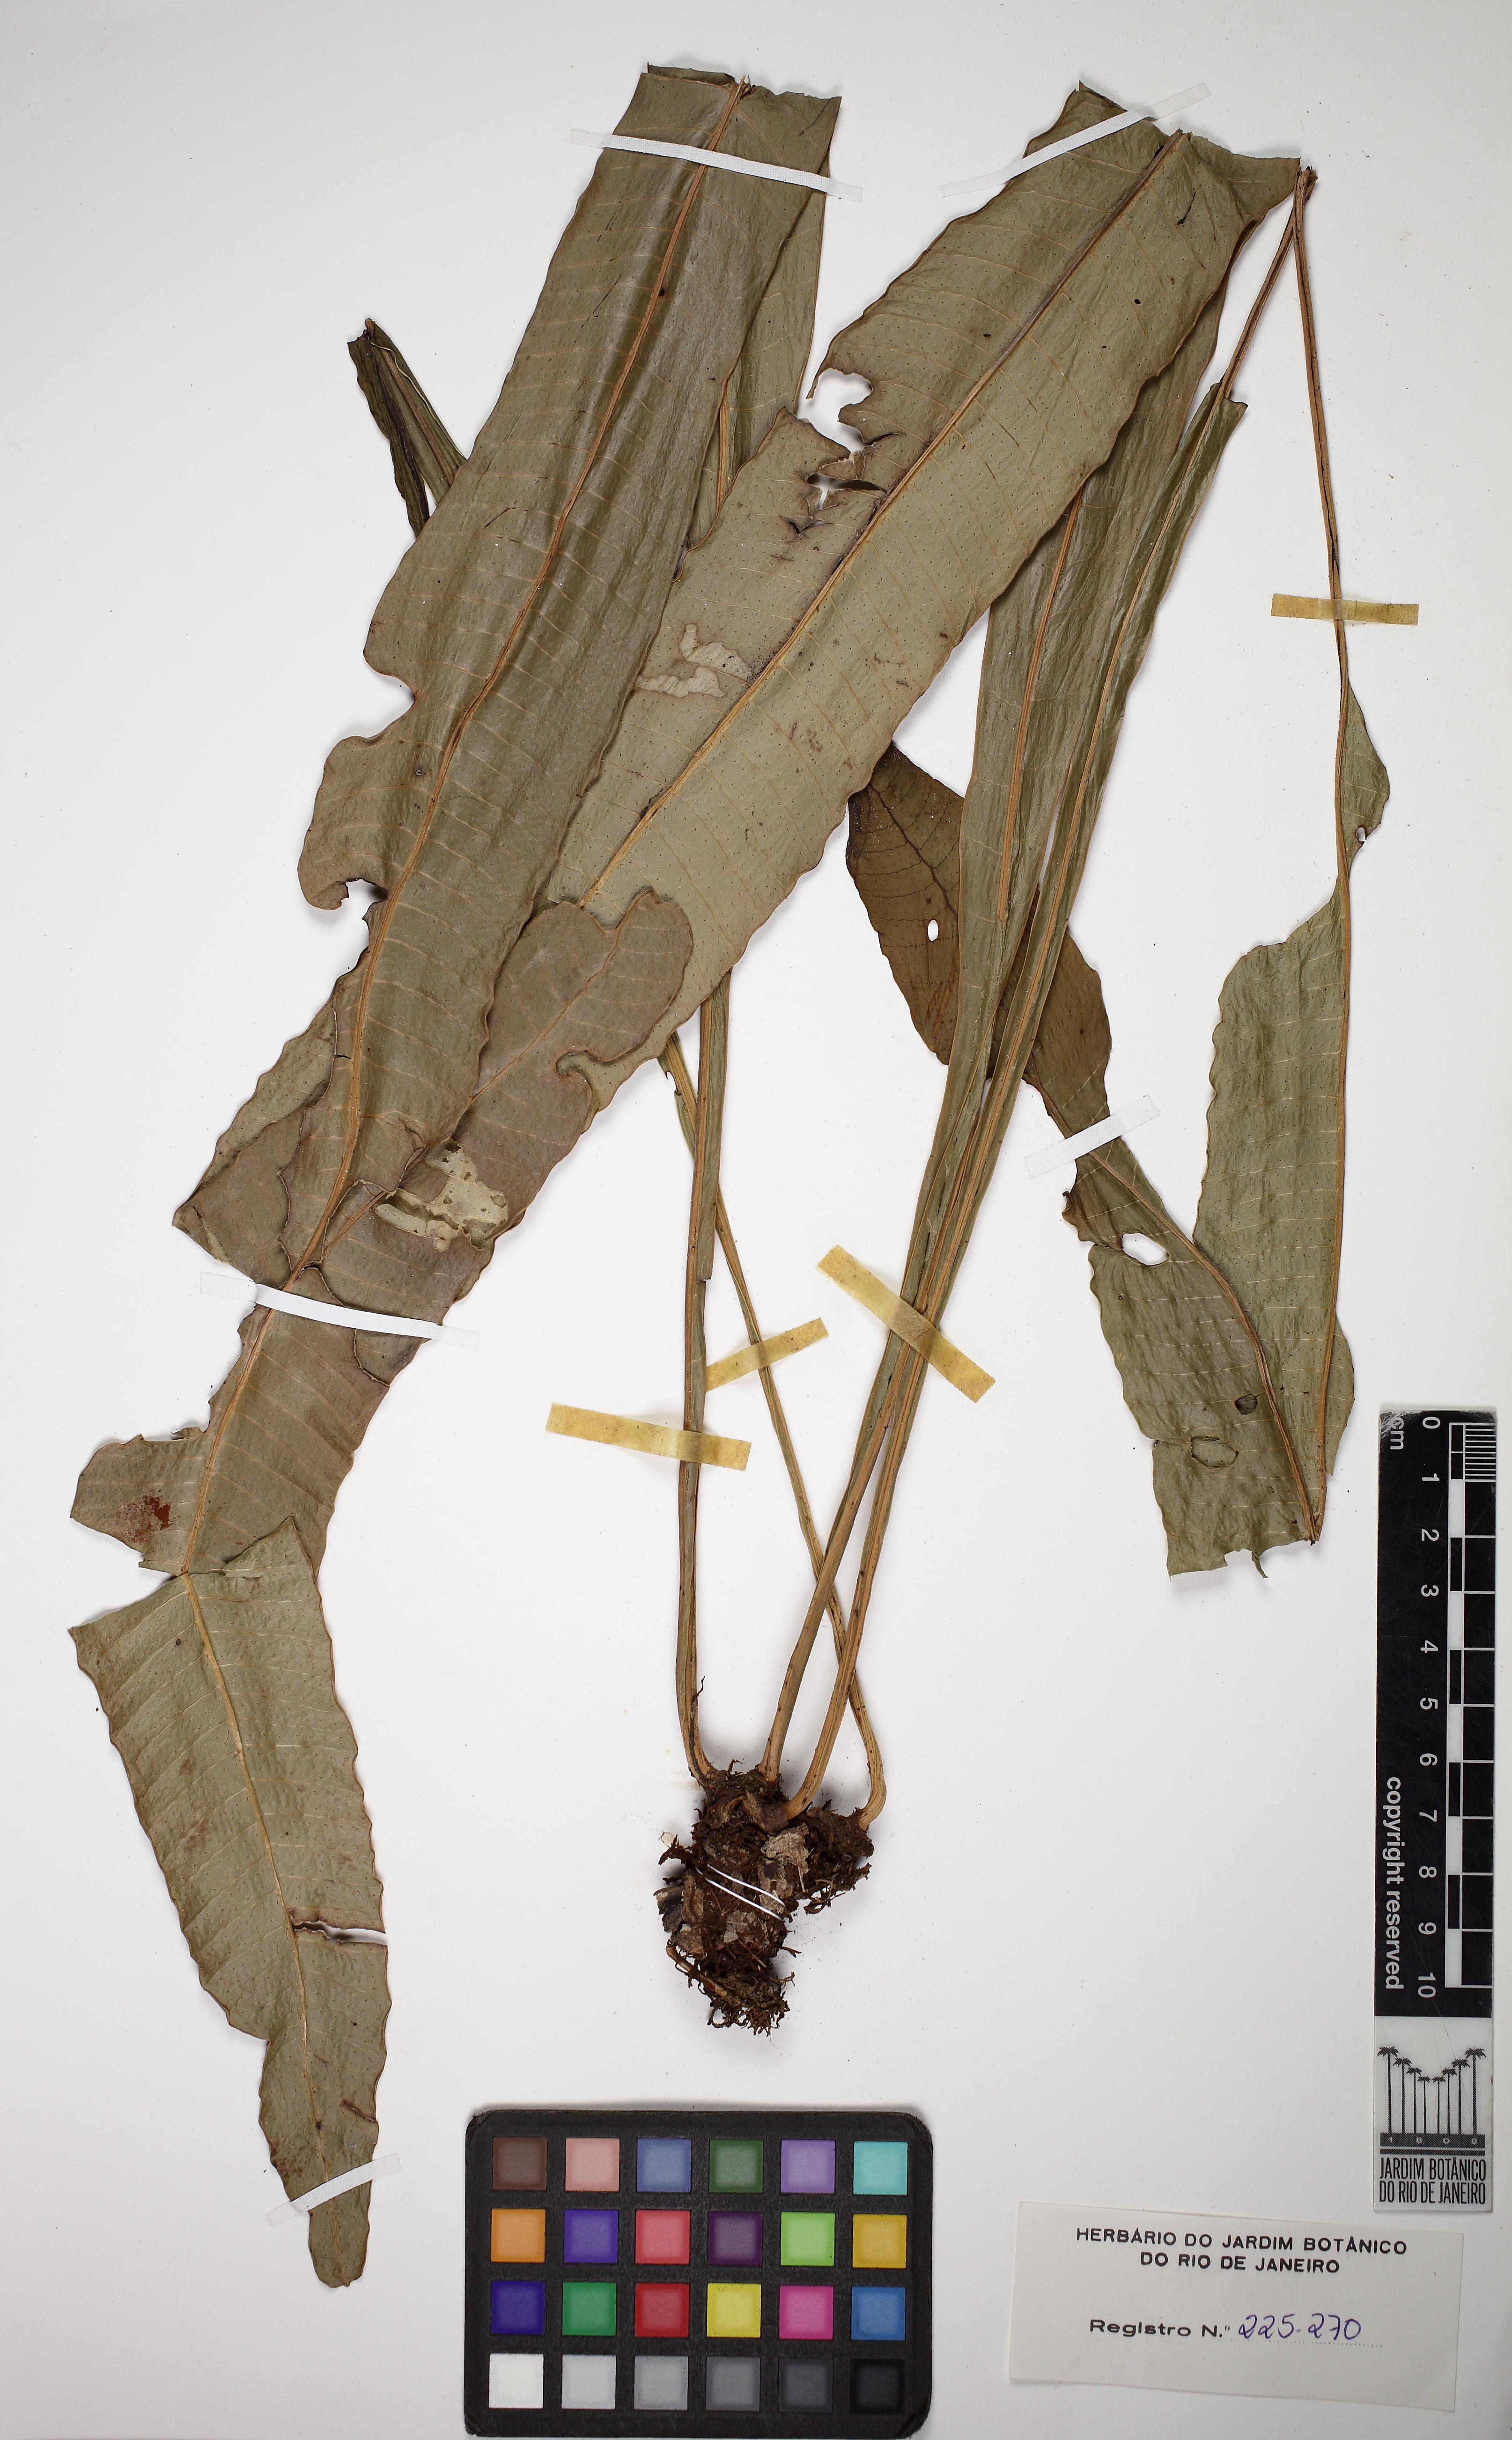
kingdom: Plantae
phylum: Tracheophyta
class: Polypodiopsida
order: Polypodiales
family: Polypodiaceae
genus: Campyloneurum
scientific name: Campyloneurum repens
